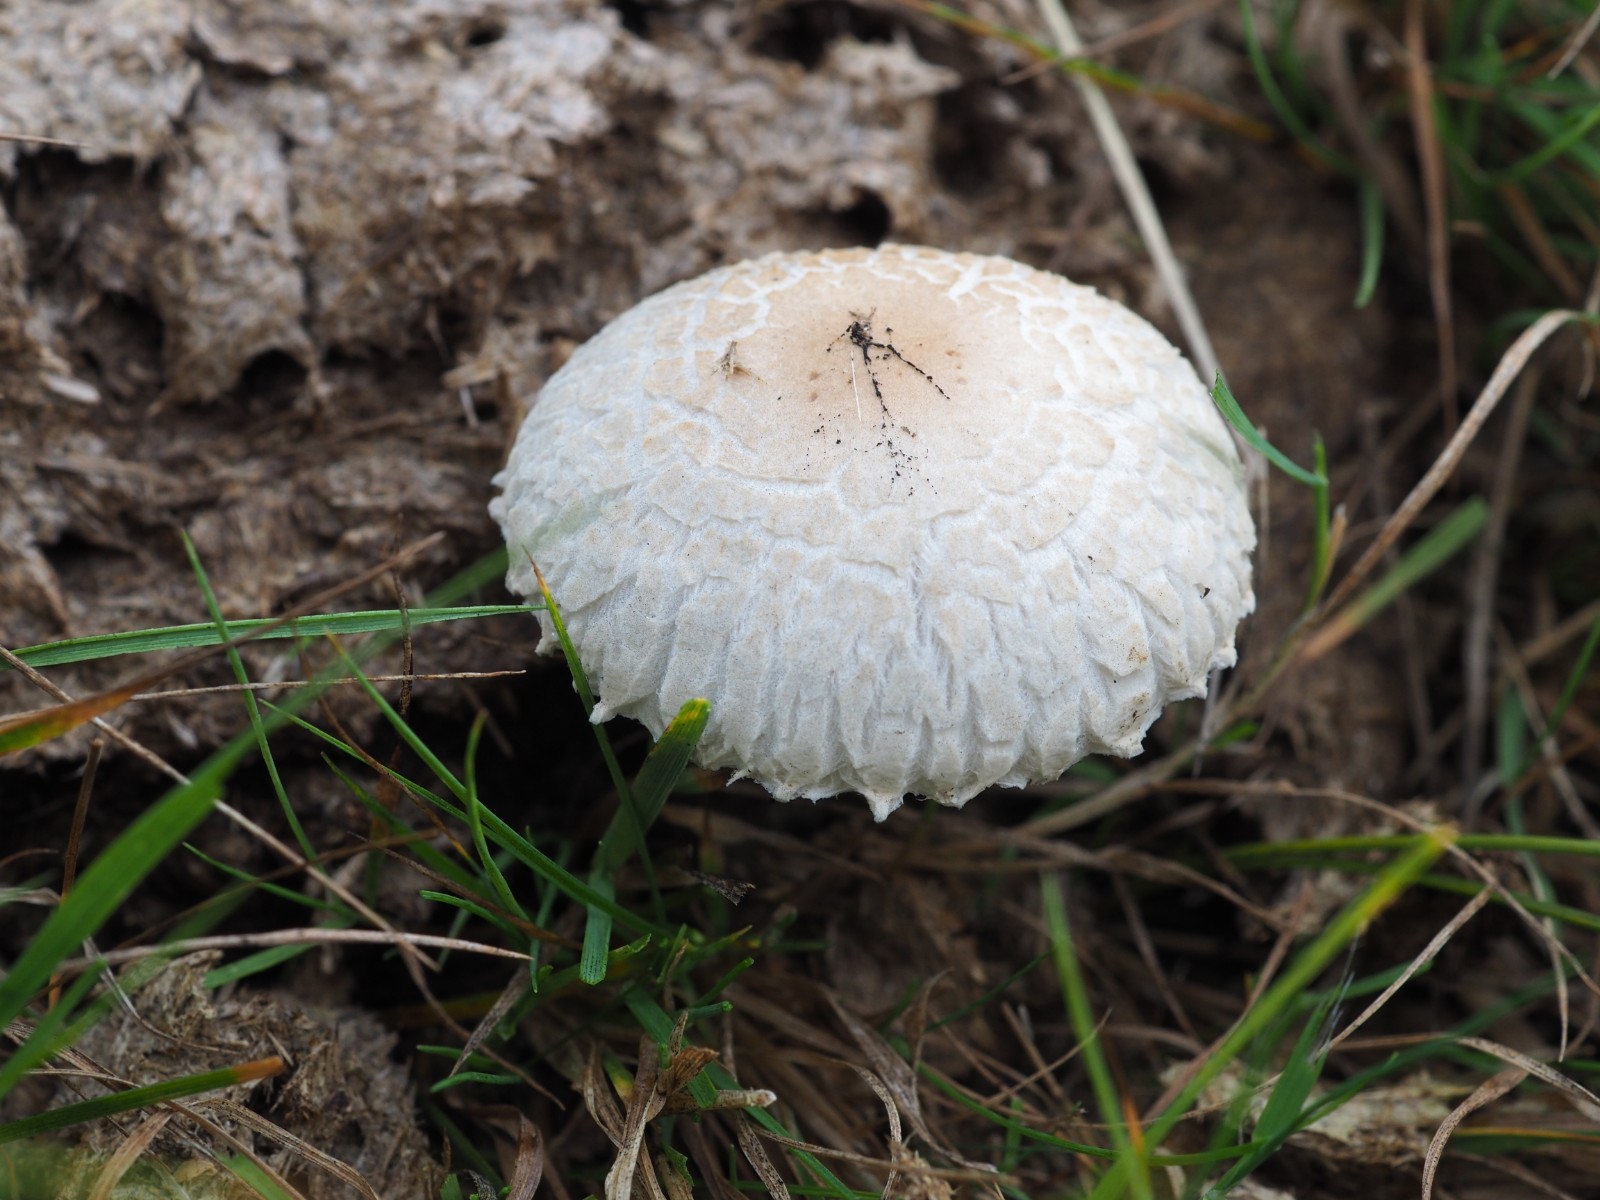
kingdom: Fungi
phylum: Basidiomycota
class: Agaricomycetes
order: Agaricales
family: Strophariaceae
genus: Protostropharia
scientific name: Protostropharia semiglobata
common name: halvkugleformet bredblad
